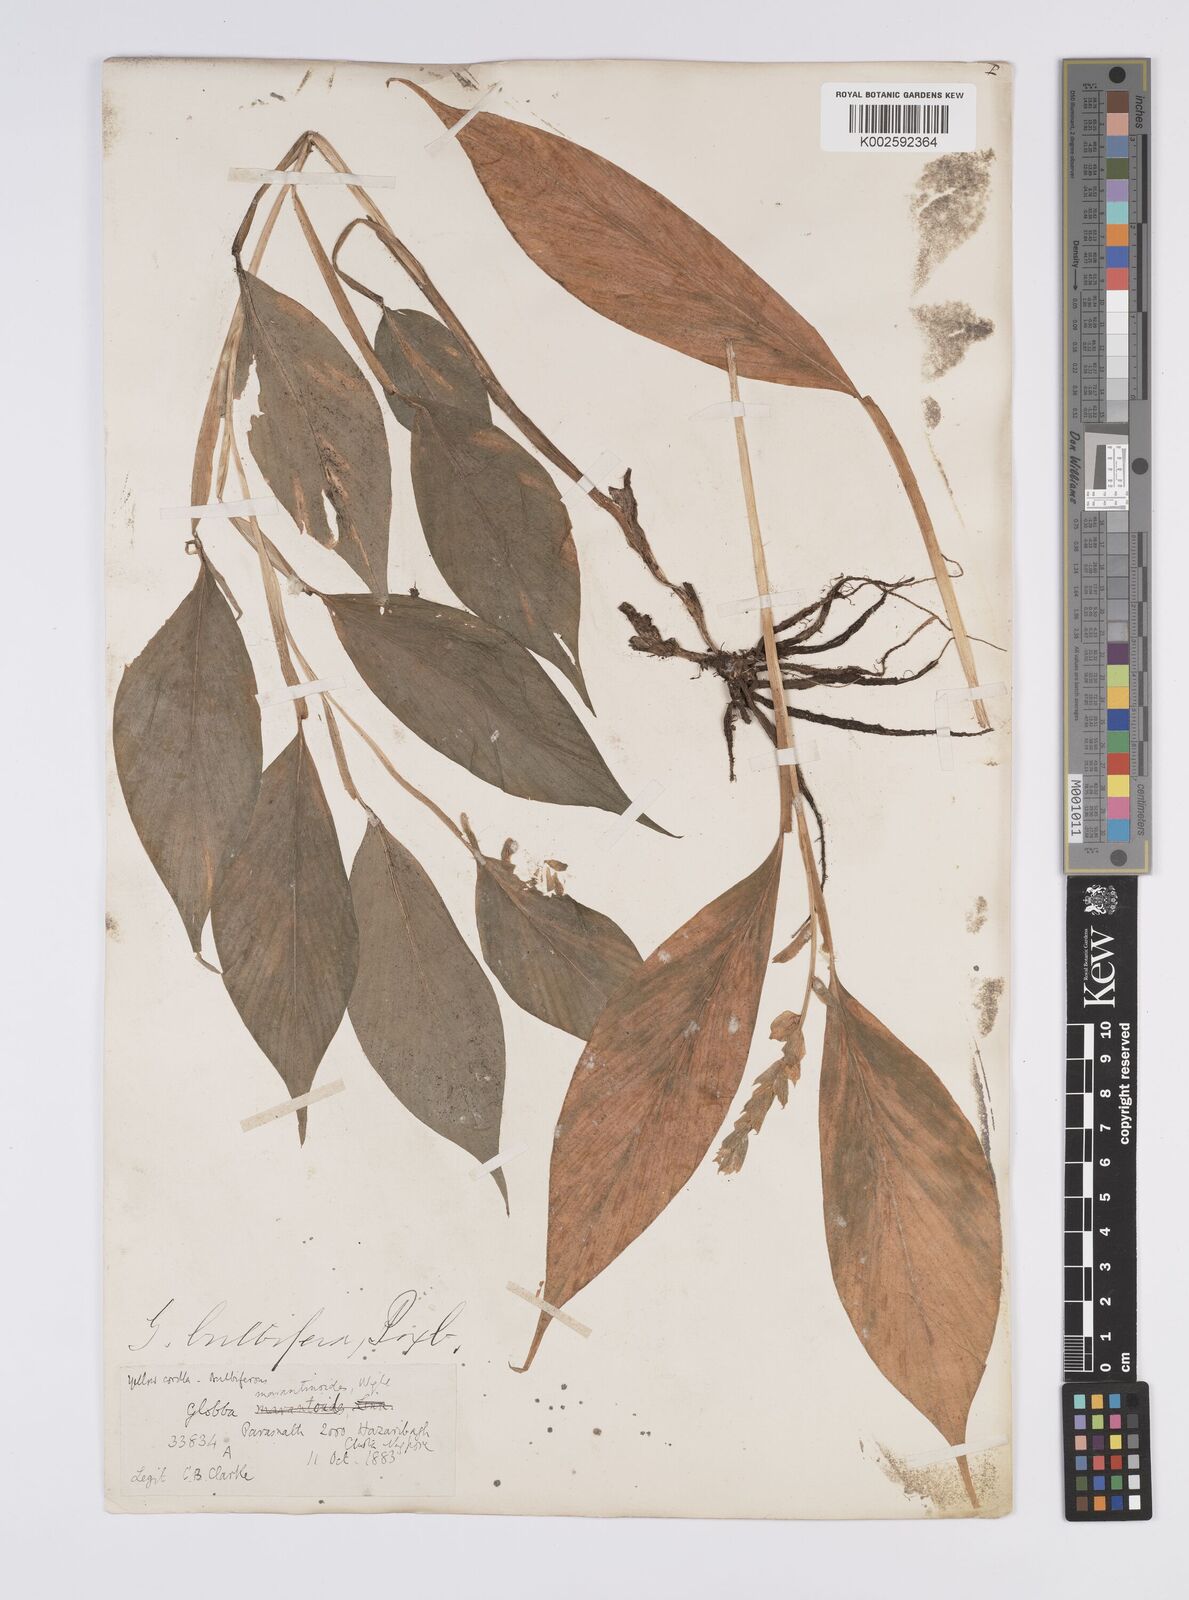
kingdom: Plantae
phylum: Tracheophyta
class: Liliopsida
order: Zingiberales
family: Zingiberaceae
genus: Globba
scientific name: Globba marantina
